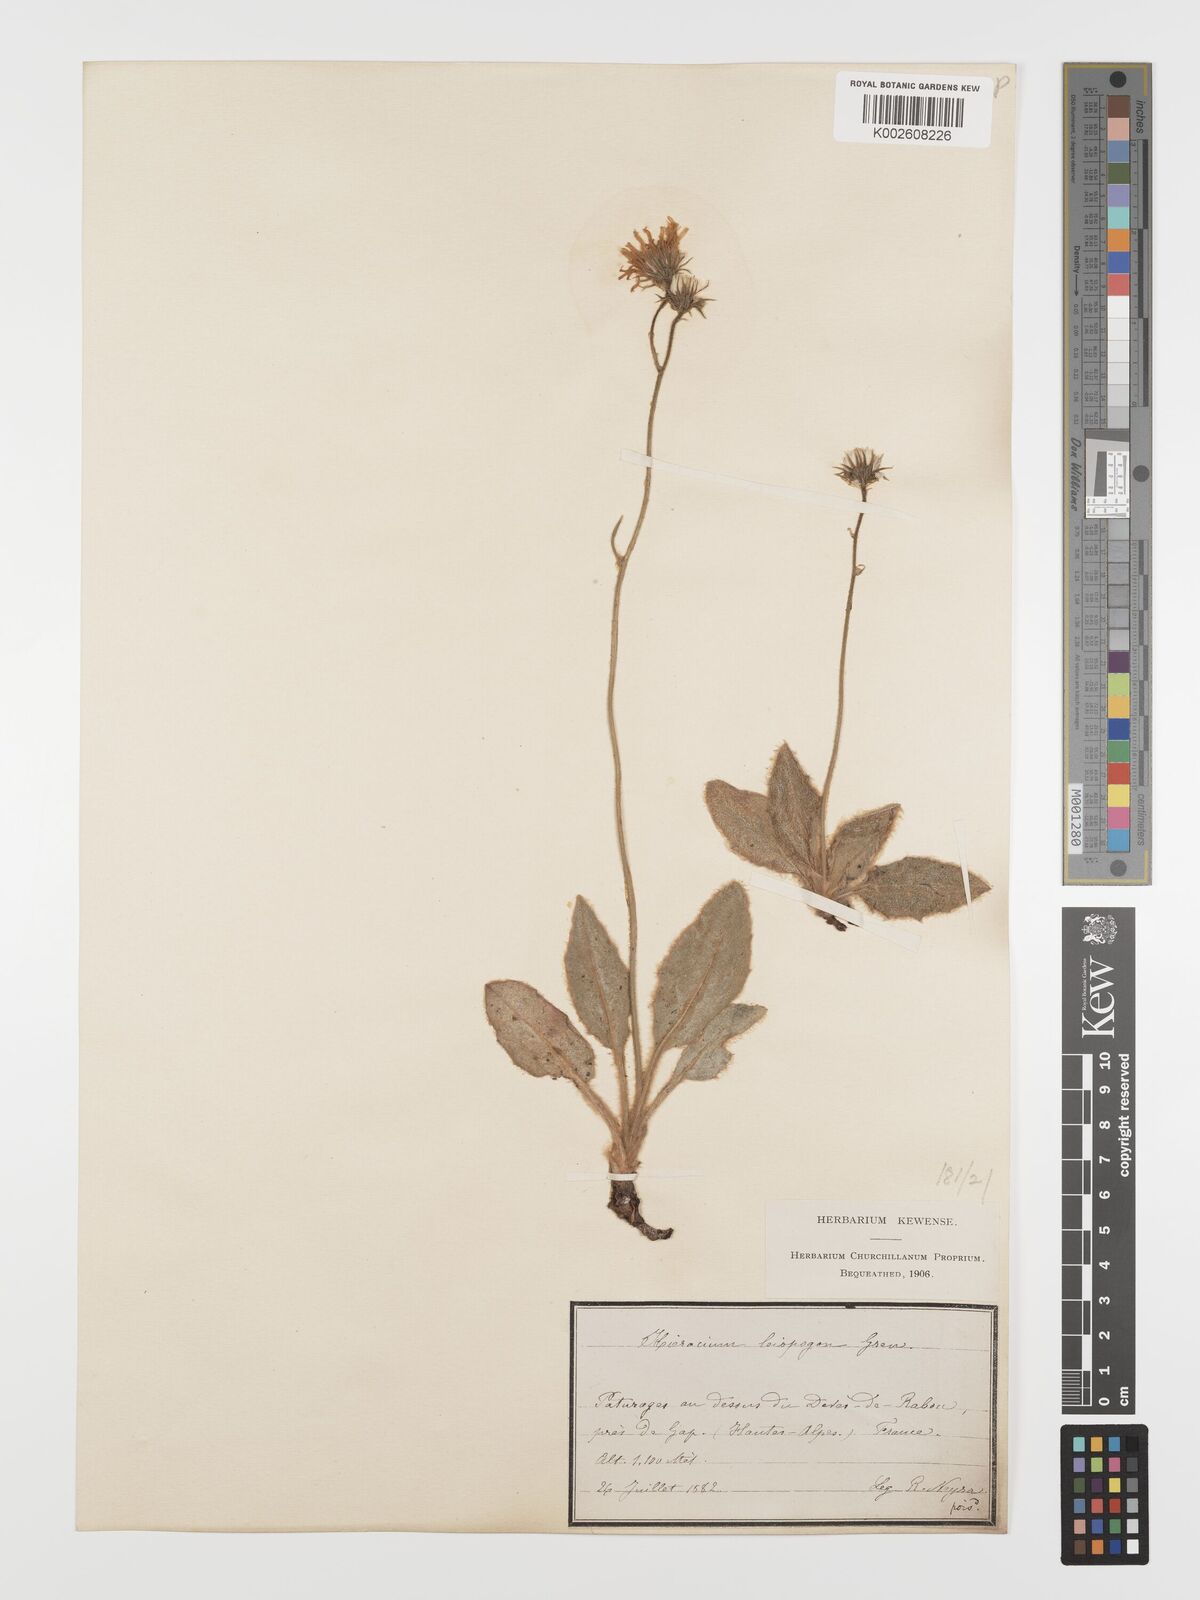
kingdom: Plantae
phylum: Tracheophyta
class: Magnoliopsida
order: Asterales
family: Asteraceae
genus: Hieracium
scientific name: Hieracium leiopogon
